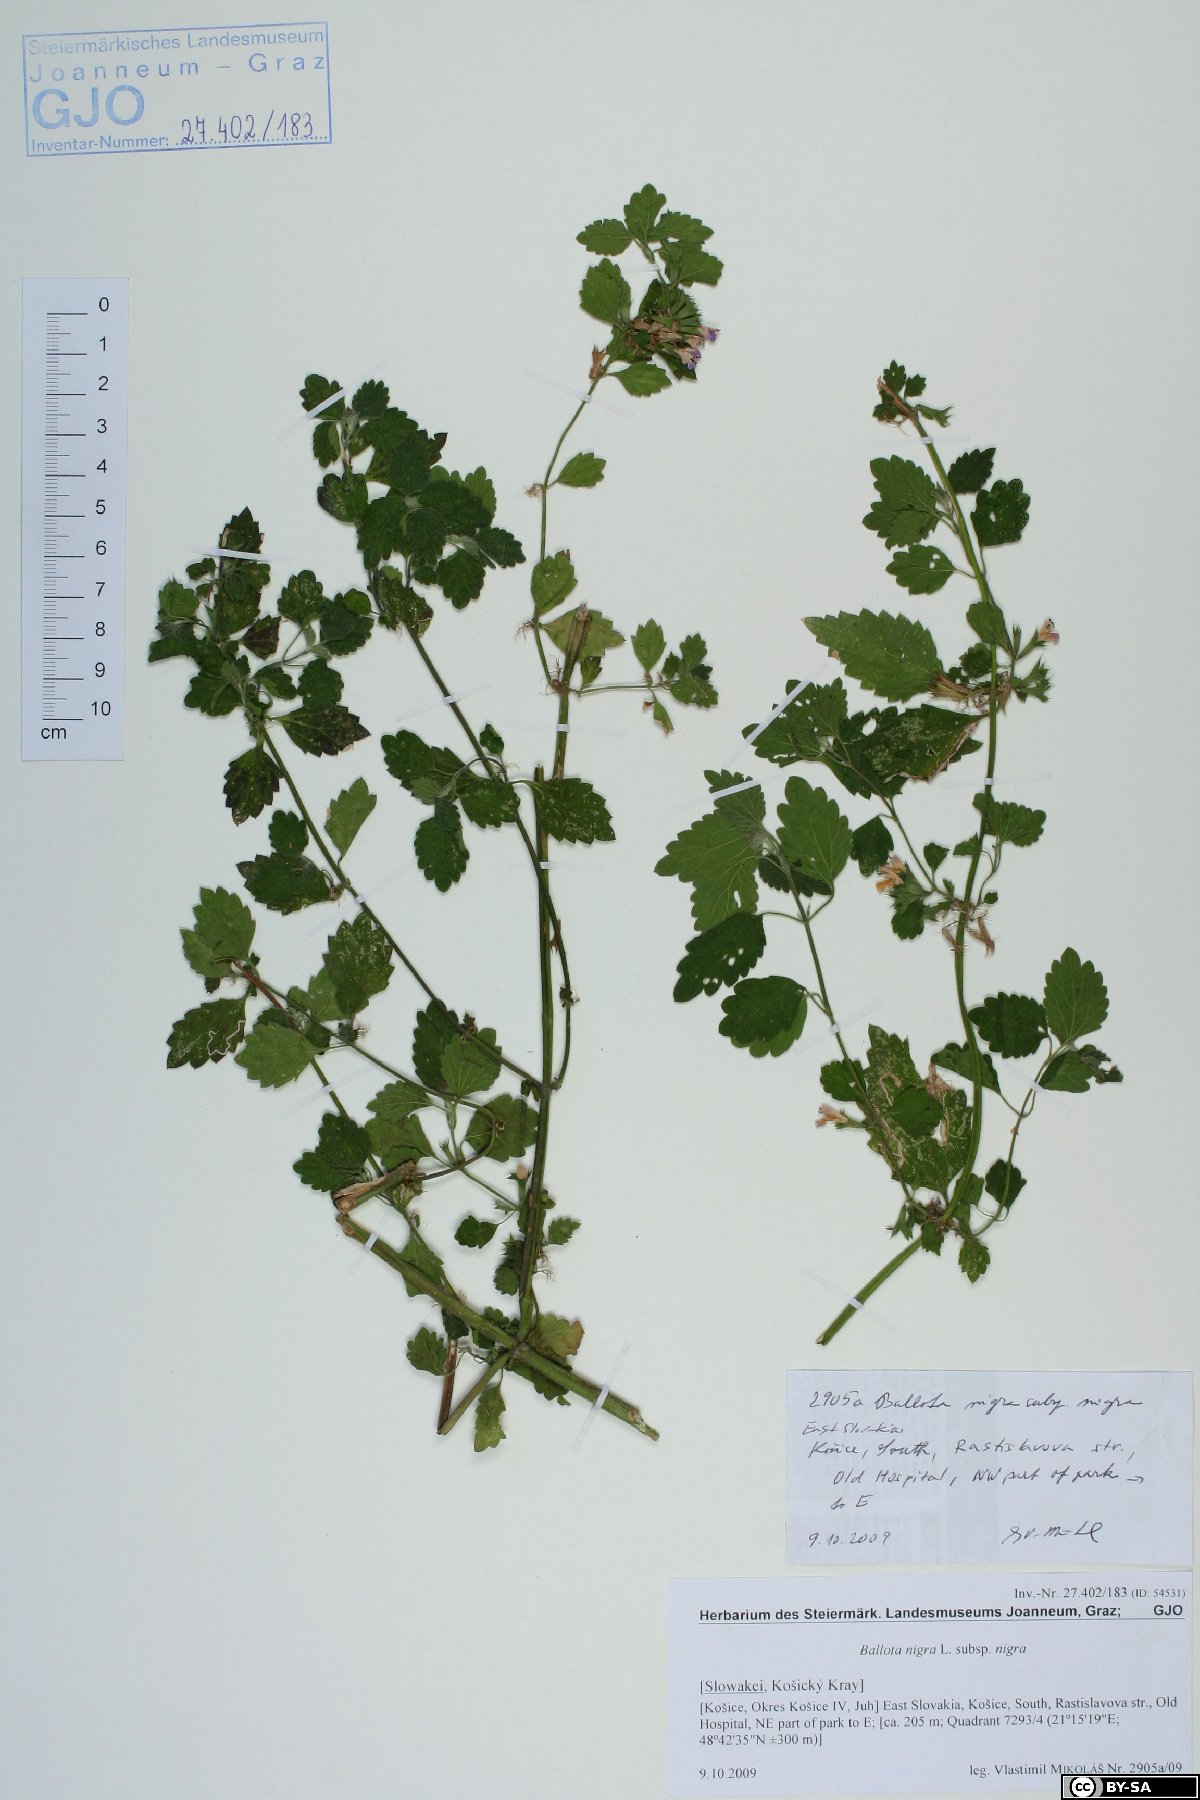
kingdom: Plantae
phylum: Tracheophyta
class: Magnoliopsida
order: Lamiales
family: Lamiaceae
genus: Ballota
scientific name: Ballota nigra
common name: Black horehound
